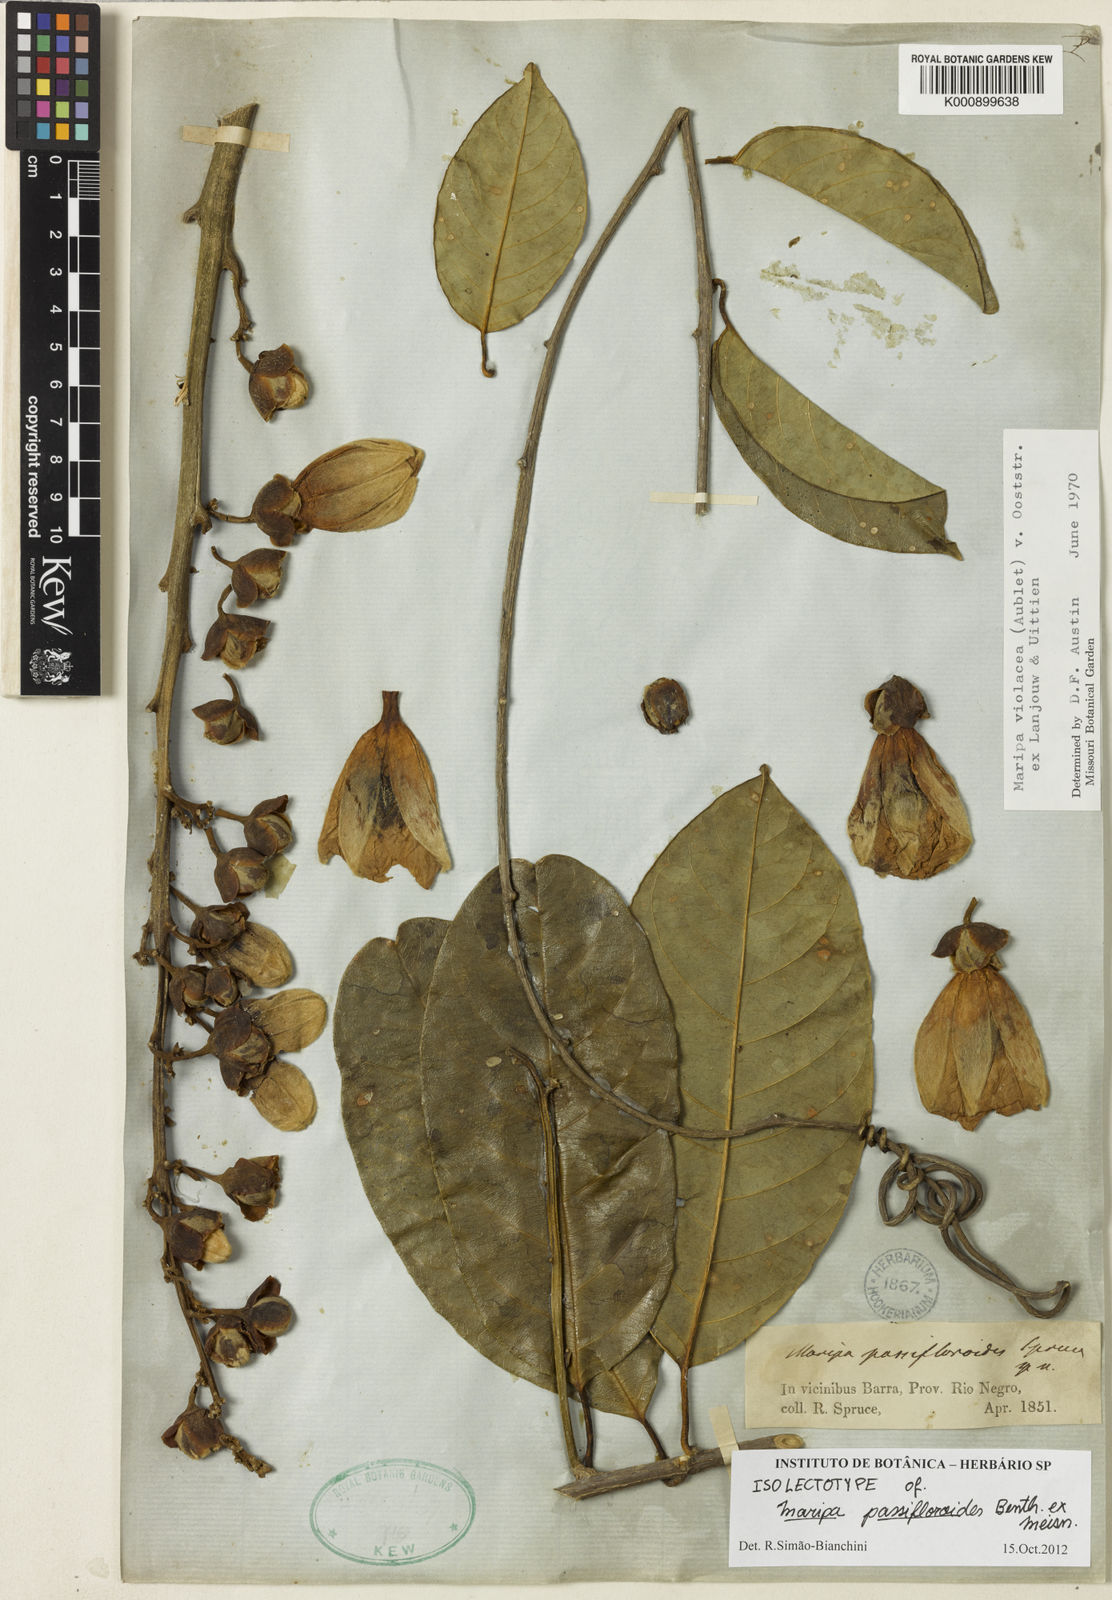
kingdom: Plantae
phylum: Tracheophyta
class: Magnoliopsida
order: Solanales
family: Convolvulaceae
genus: Maripa
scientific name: Maripa violacea
